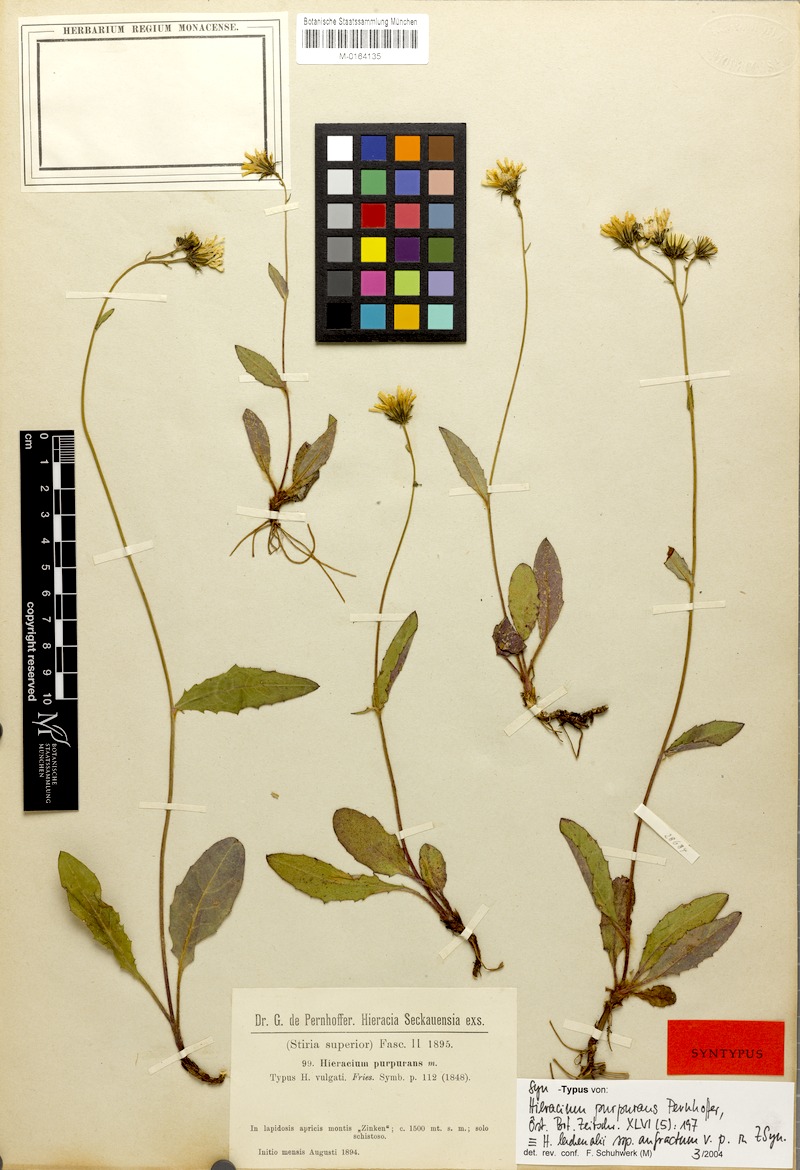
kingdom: Plantae
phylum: Tracheophyta
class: Magnoliopsida
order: Asterales
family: Asteraceae
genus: Hieracium
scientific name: Hieracium lachenalii
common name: Common hawkweed
